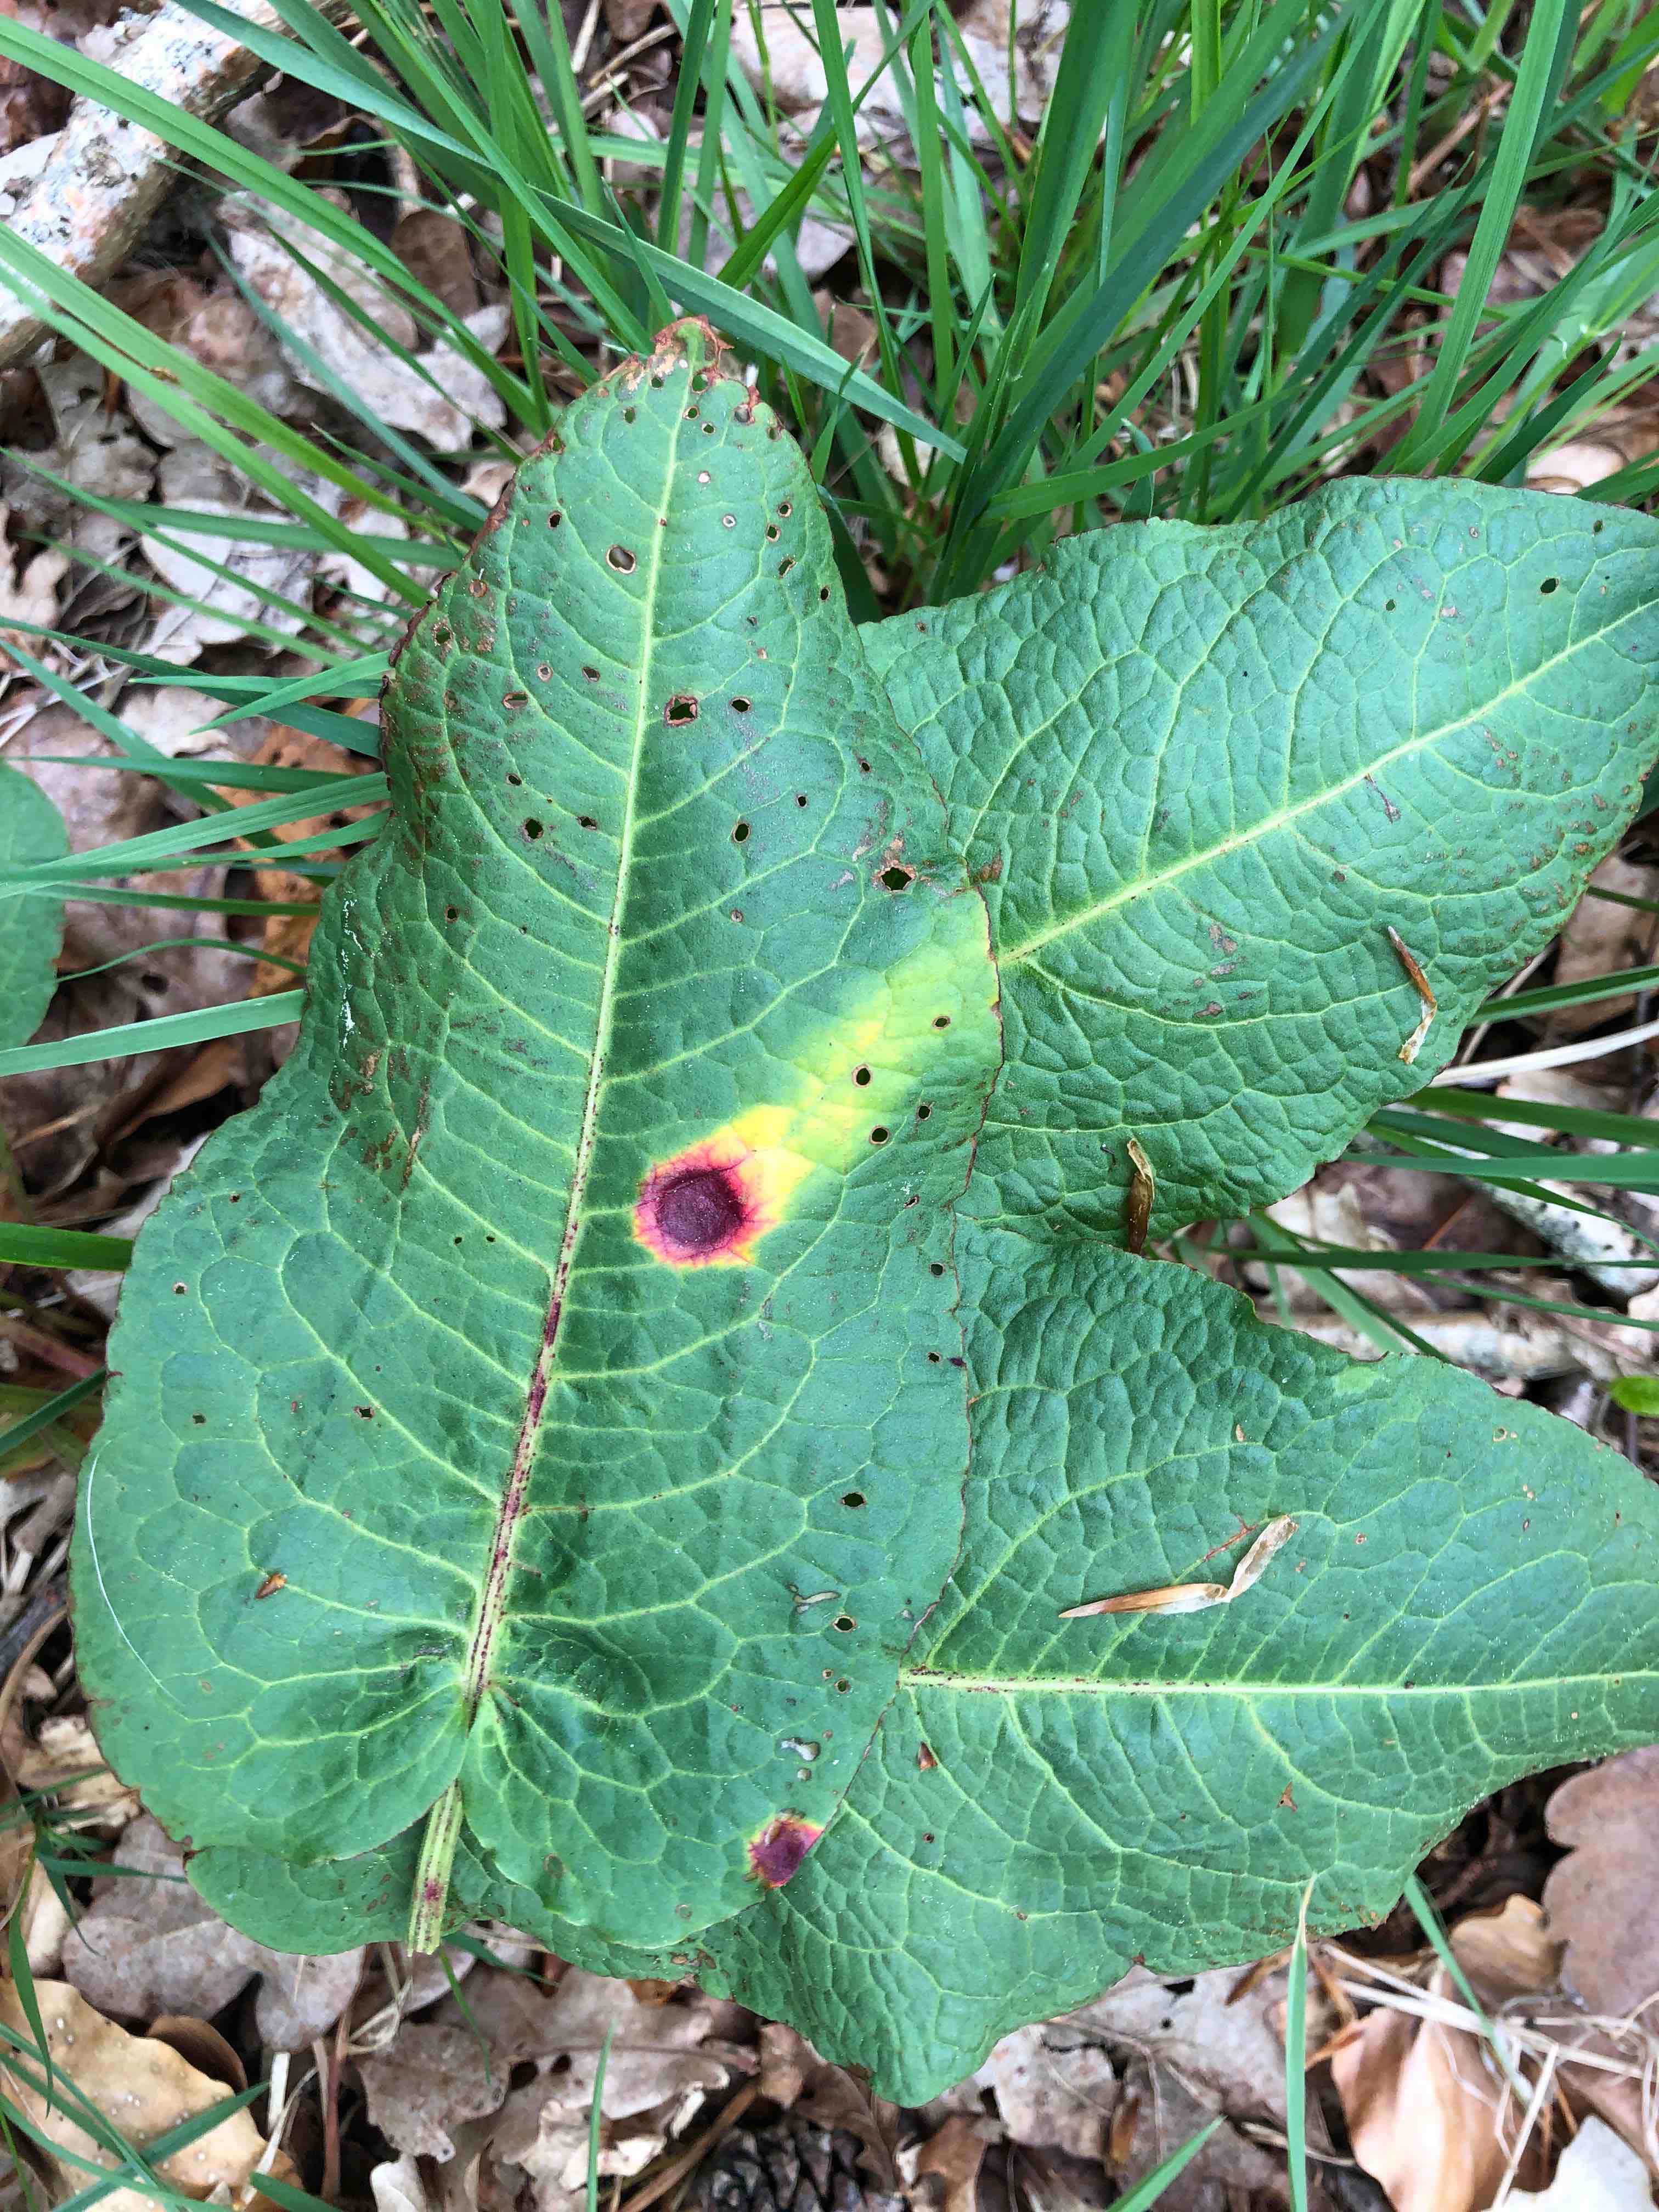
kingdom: Fungi
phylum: Basidiomycota
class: Pucciniomycetes
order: Pucciniales
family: Pucciniaceae
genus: Puccinia
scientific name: Puccinia phragmitis
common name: tagrør-tvecellerust
